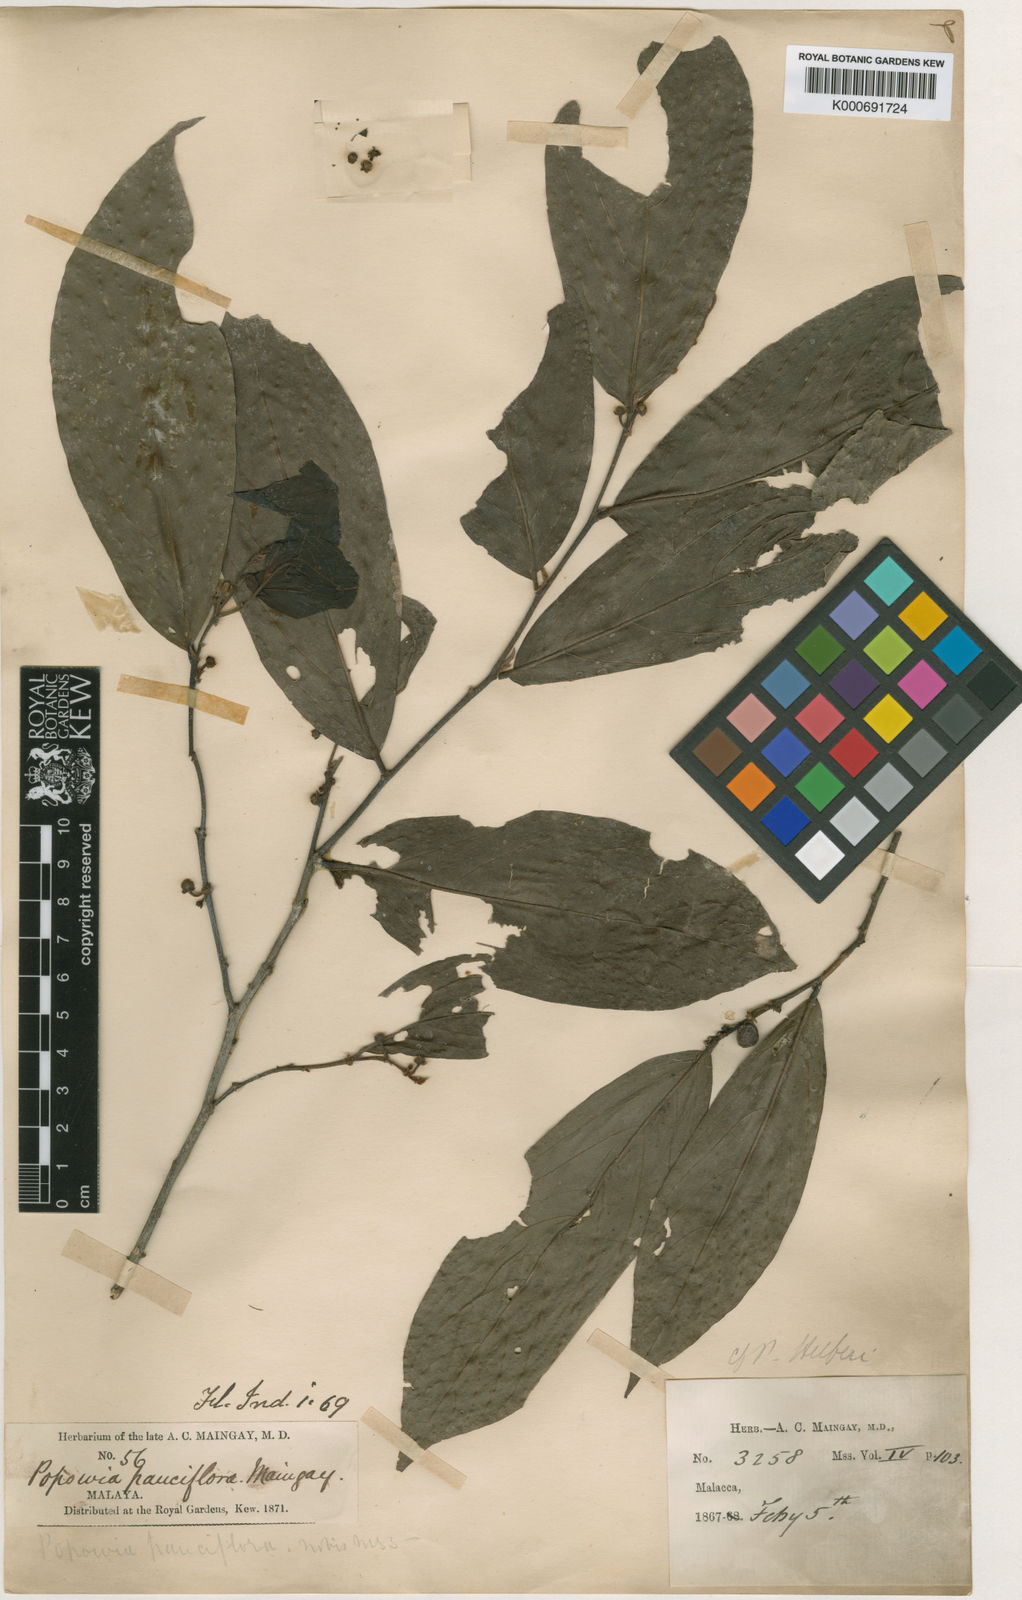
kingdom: Plantae
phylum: Tracheophyta
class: Magnoliopsida
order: Magnoliales
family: Annonaceae
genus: Popowia
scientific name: Popowia pauciflora
